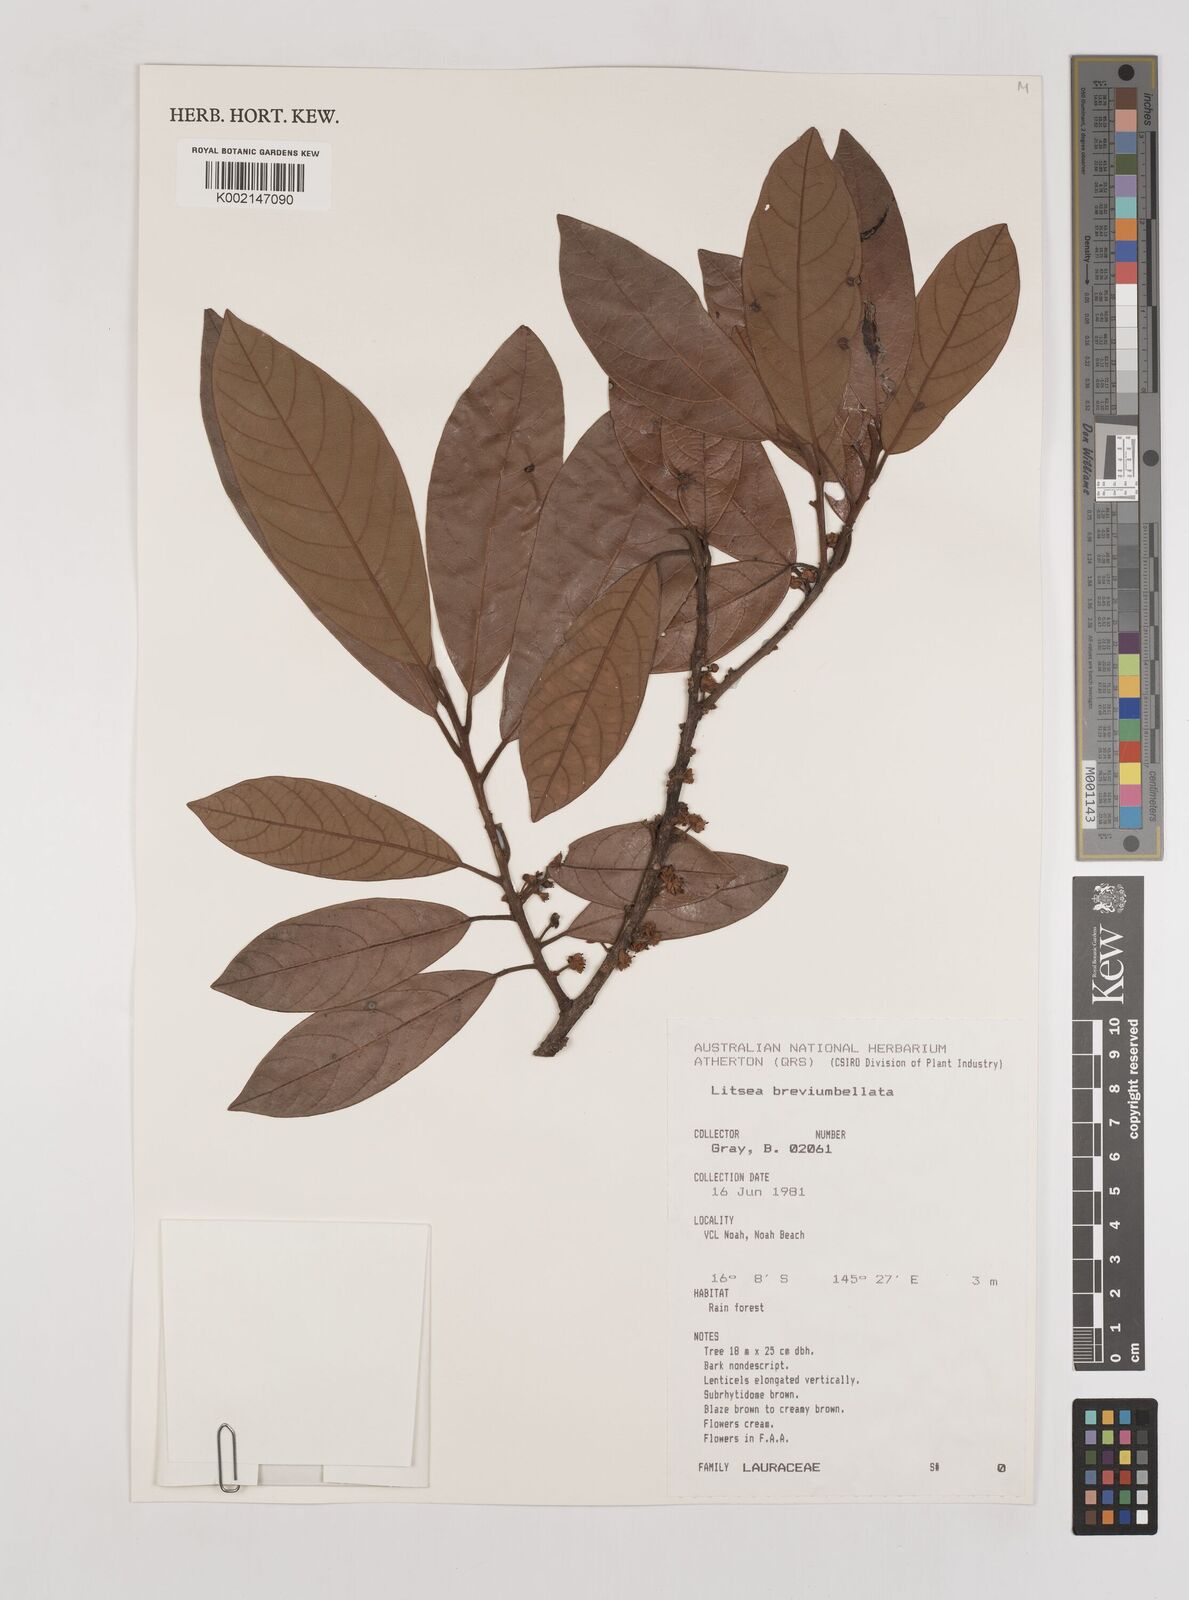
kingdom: Plantae
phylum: Tracheophyta
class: Magnoliopsida
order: Laurales
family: Lauraceae
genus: Litsea
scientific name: Litsea breviumbellata
